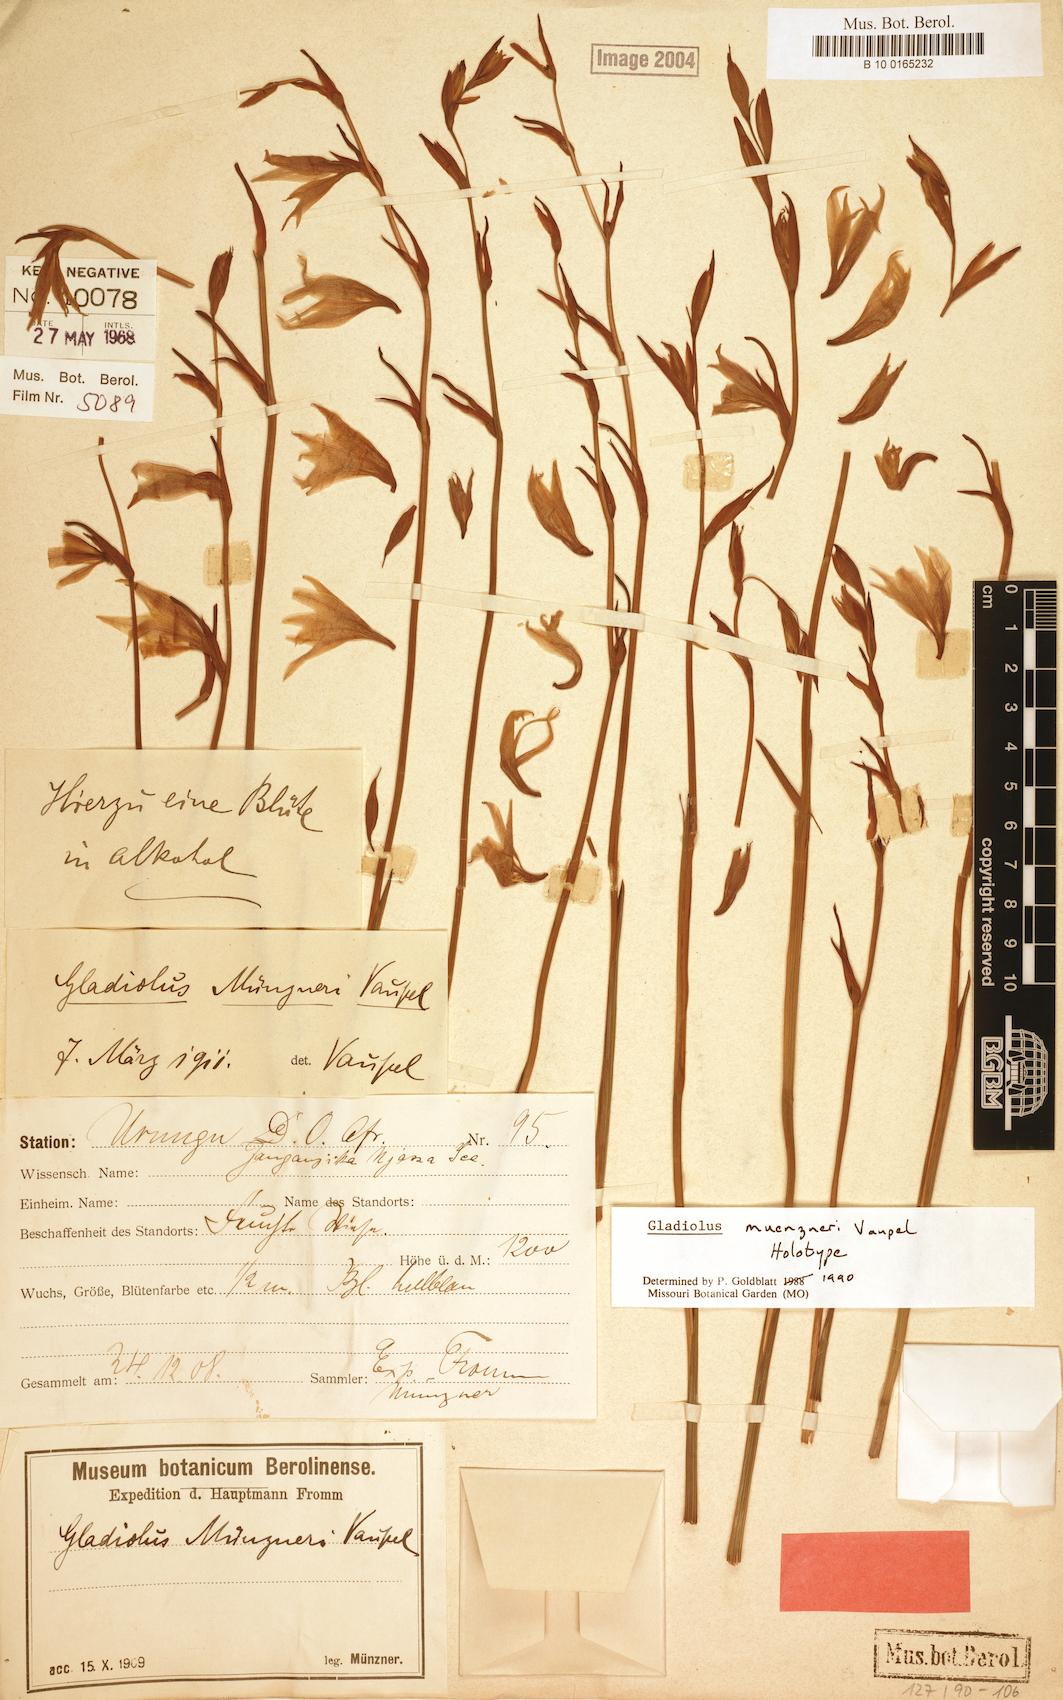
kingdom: Plantae
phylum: Tracheophyta
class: Liliopsida
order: Asparagales
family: Iridaceae
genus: Gladiolus
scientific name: Gladiolus muenzneri
